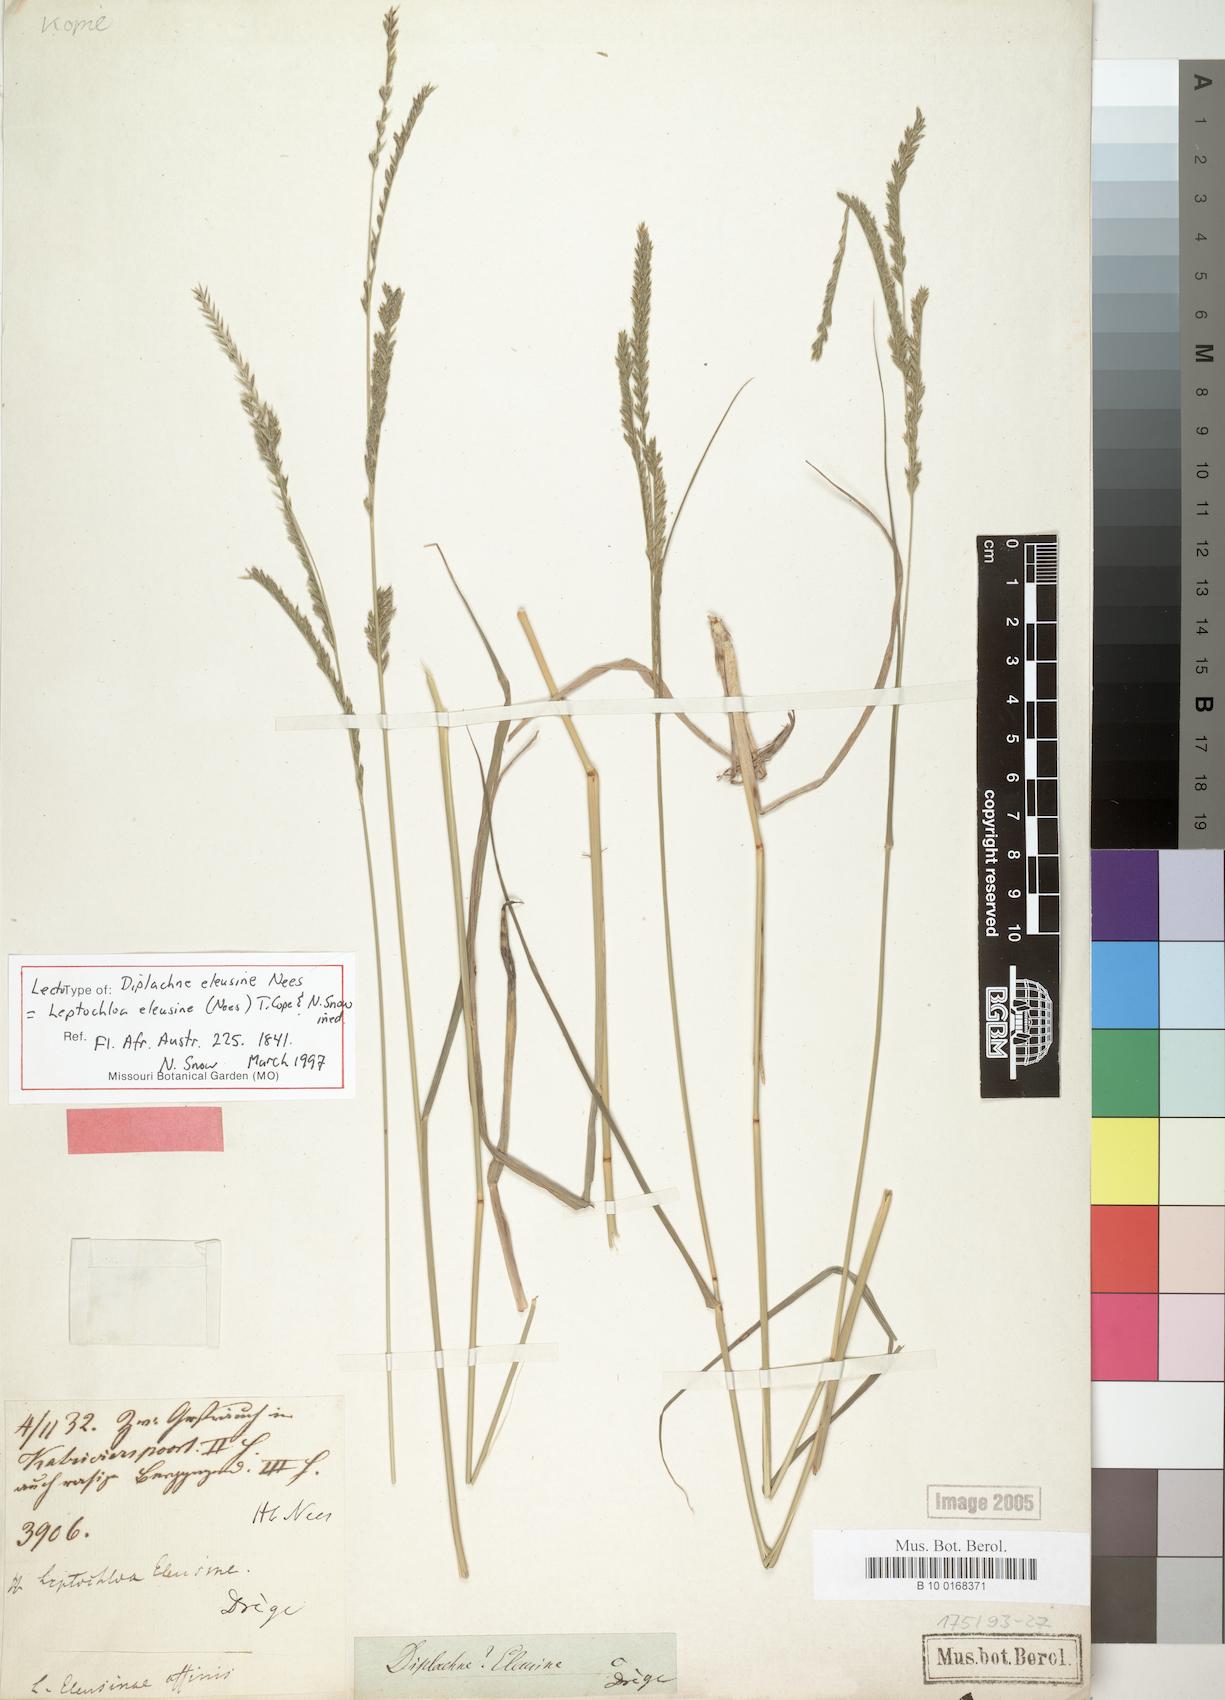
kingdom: Plantae
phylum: Tracheophyta
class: Liliopsida
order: Poales
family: Poaceae
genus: Disakisperma
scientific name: Disakisperma eleusine
